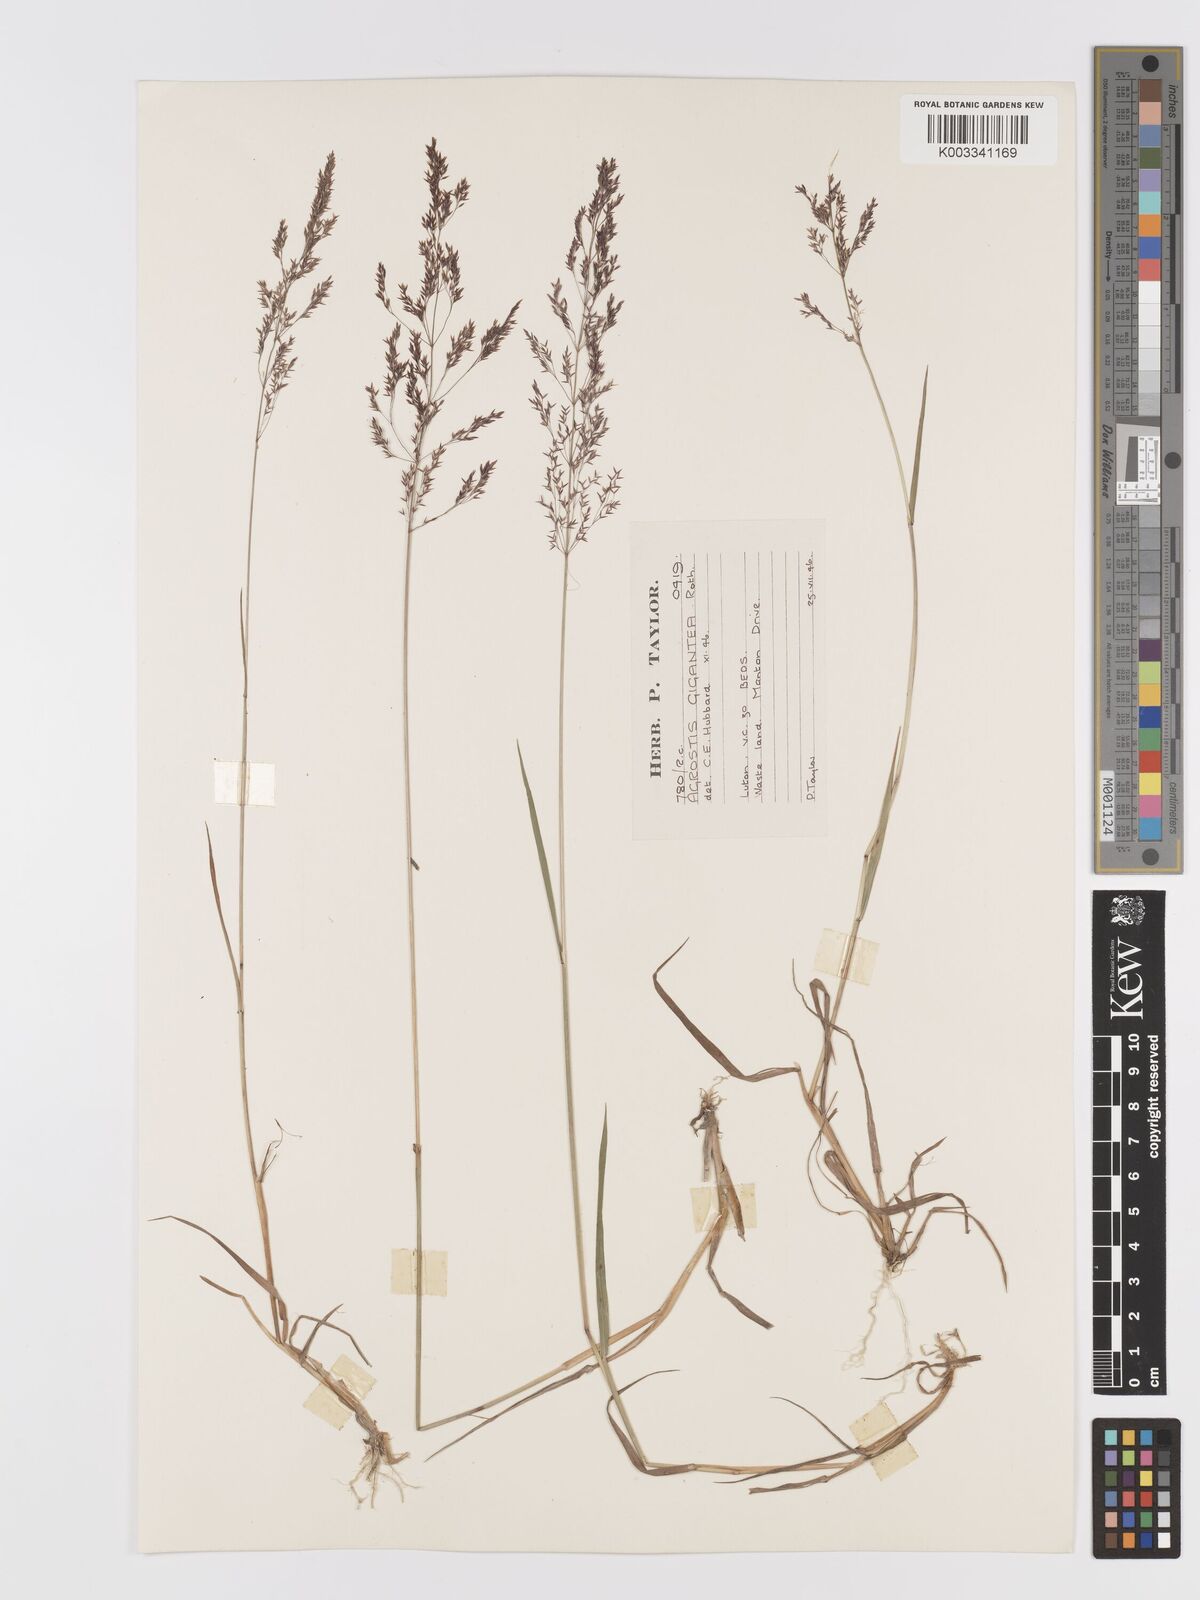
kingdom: Plantae
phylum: Tracheophyta
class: Liliopsida
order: Poales
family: Poaceae
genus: Agrostis
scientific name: Agrostis gigantea
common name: Black bent
